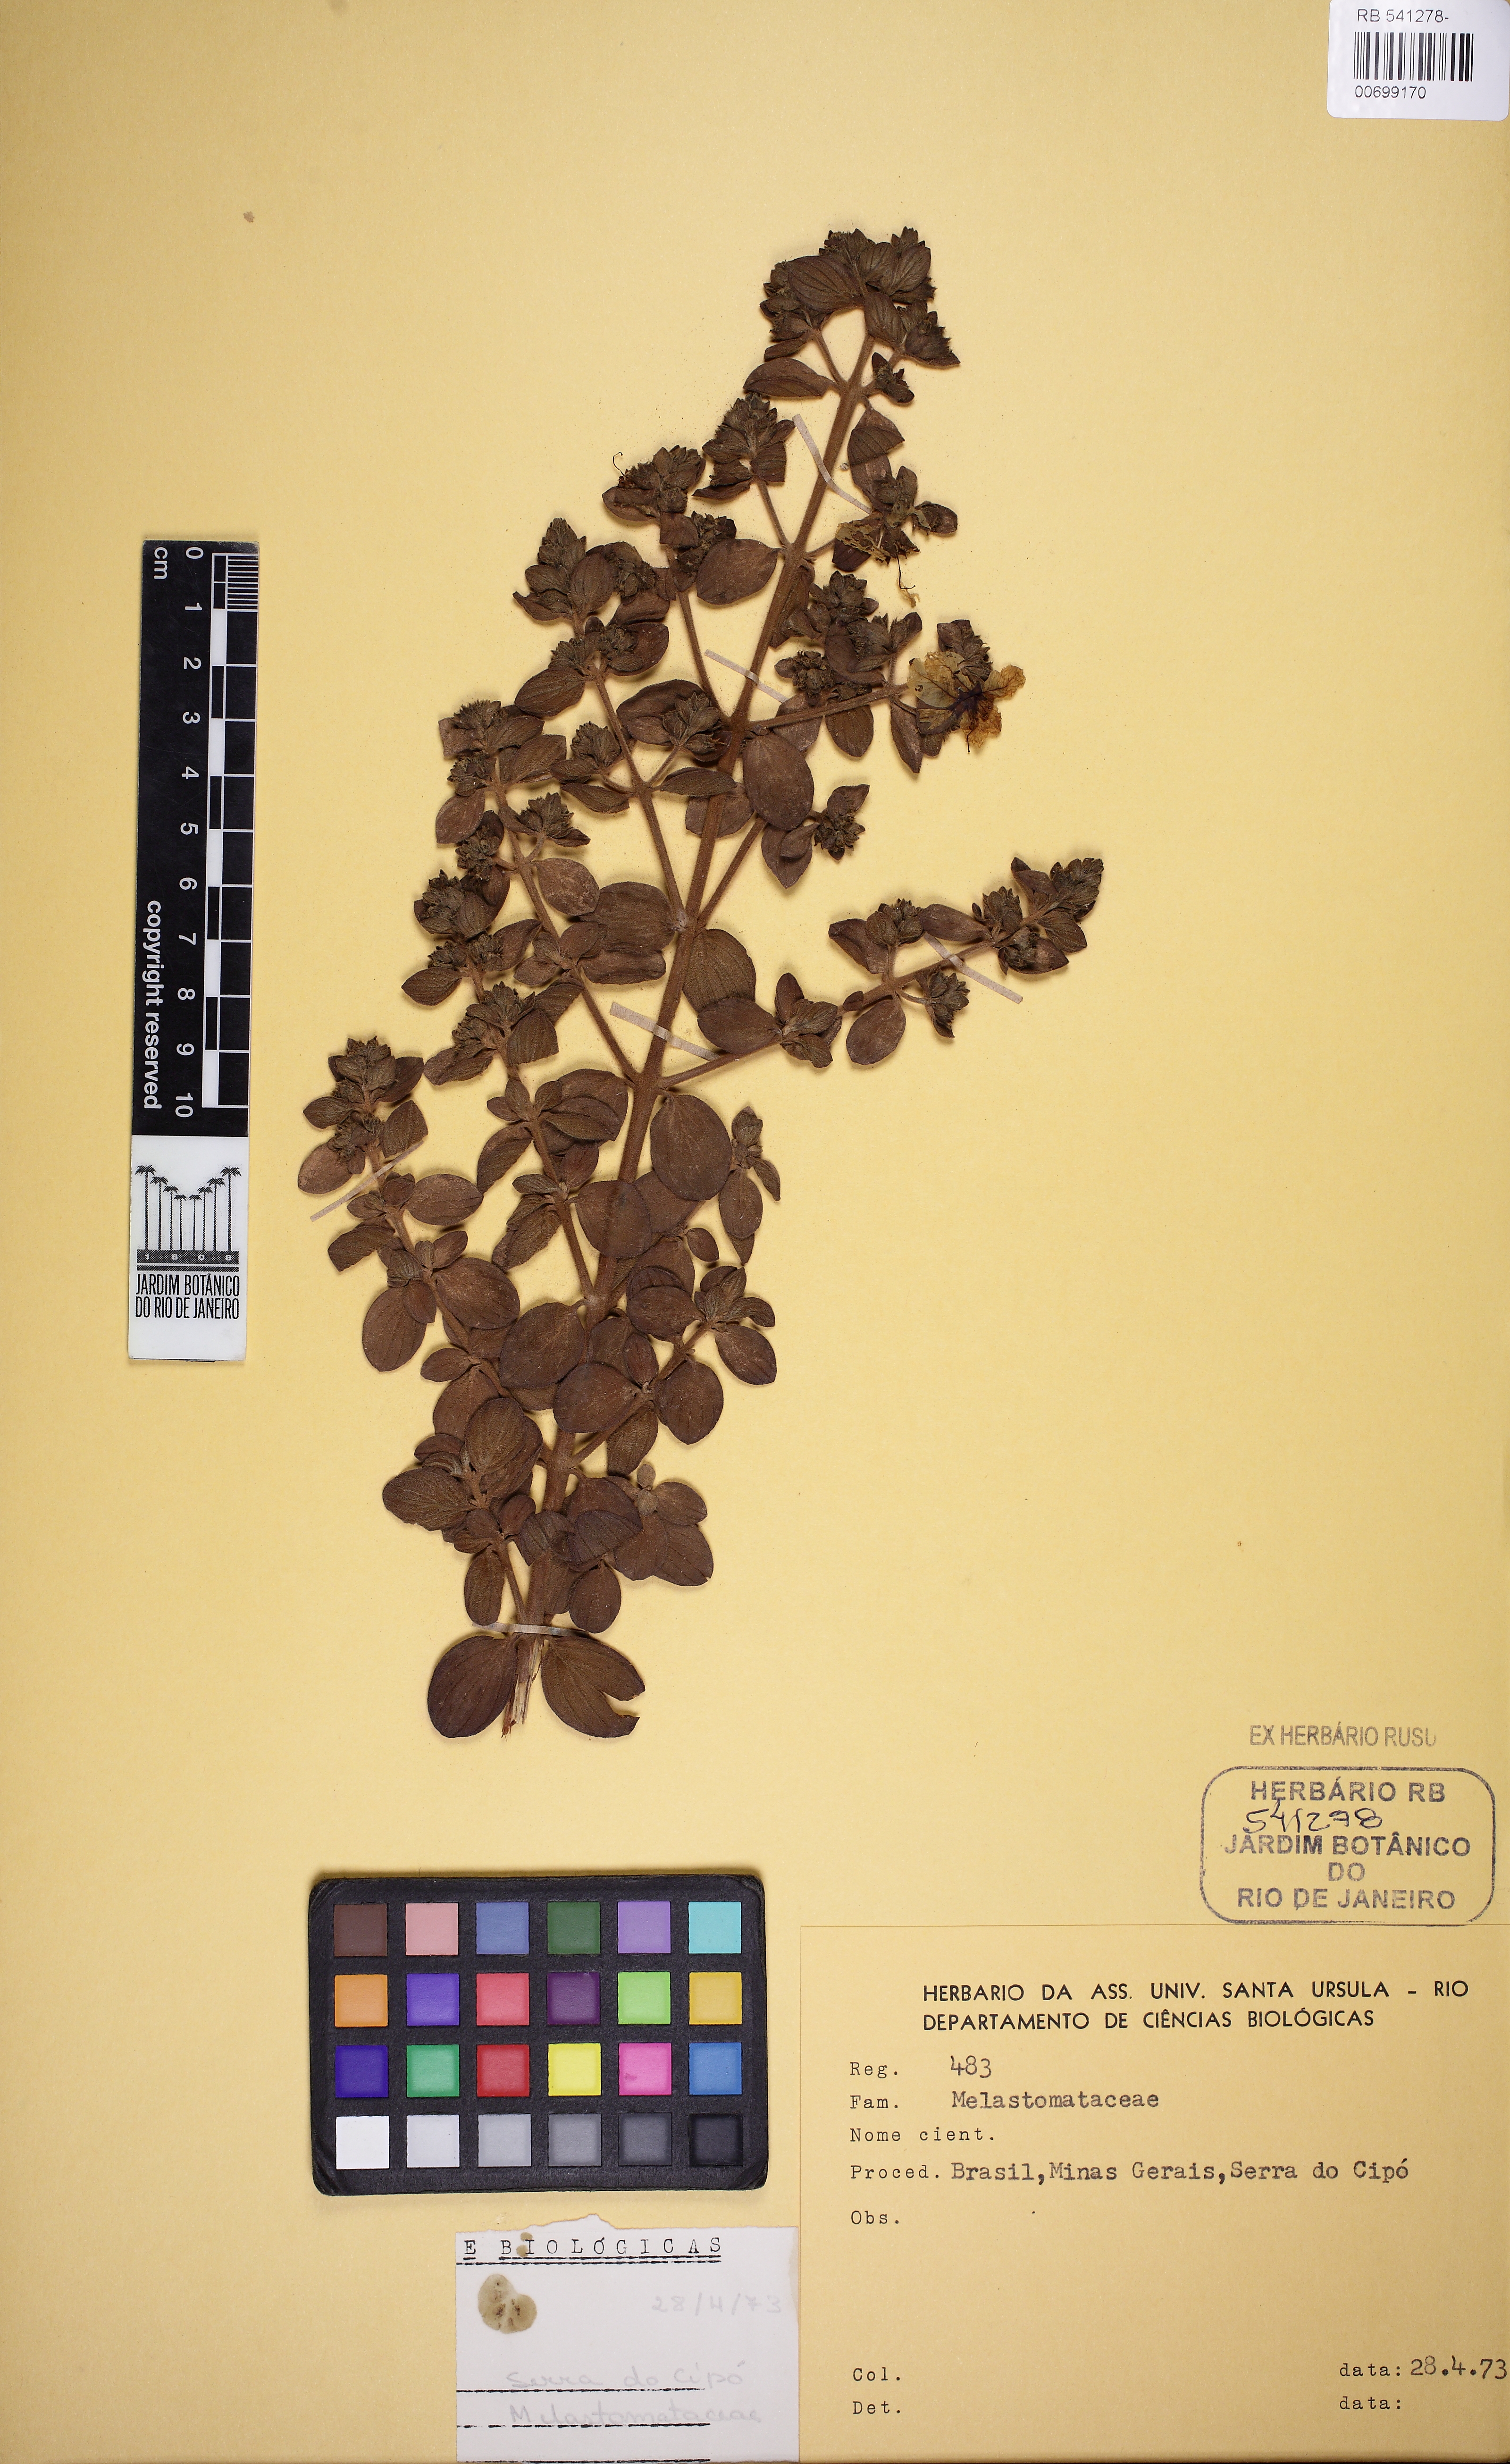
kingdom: Plantae
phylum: Tracheophyta
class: Magnoliopsida
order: Myrtales
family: Lythraceae
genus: Diplusodon
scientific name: Diplusodon
